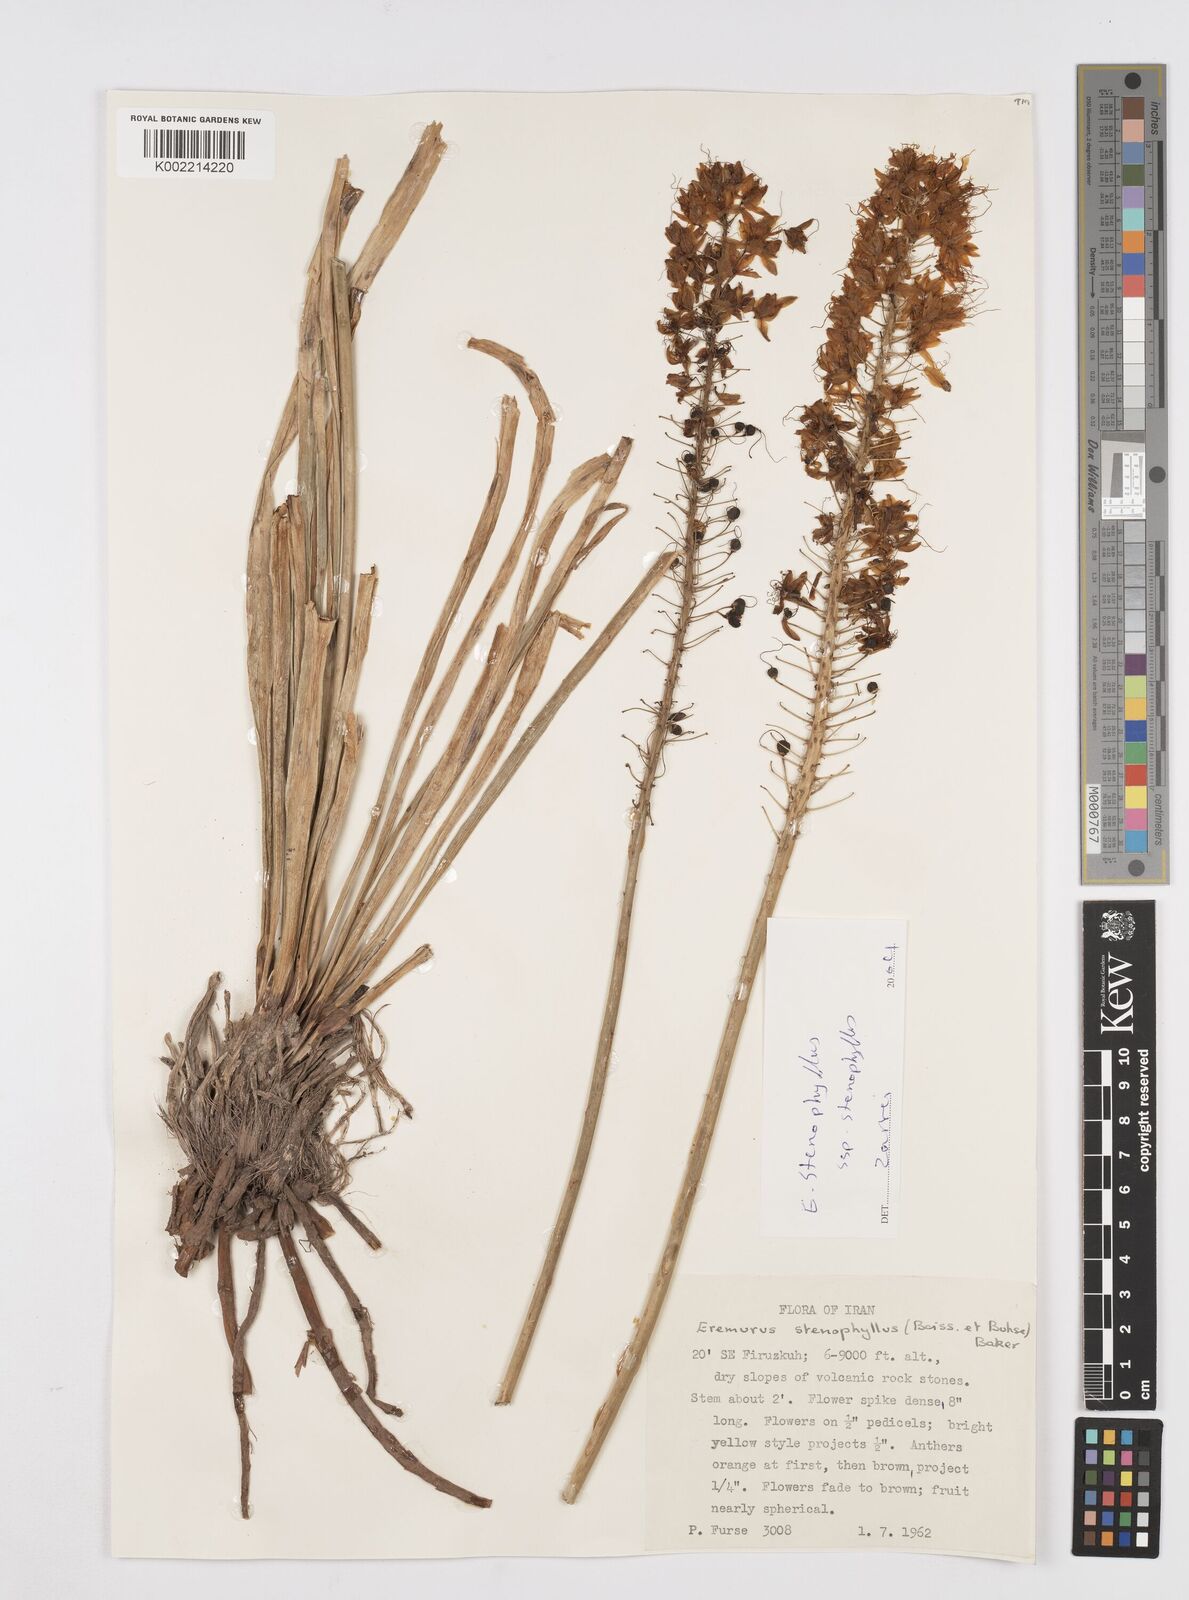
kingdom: Plantae
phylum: Tracheophyta
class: Liliopsida
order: Asparagales
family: Asphodelaceae
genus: Eremurus
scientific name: Eremurus stenophyllus
